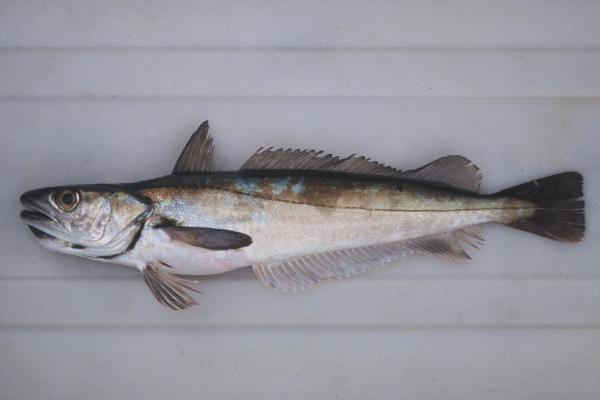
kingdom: Animalia
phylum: Chordata
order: Gadiformes
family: Merlucciidae
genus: Merluccius
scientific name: Merluccius capensis
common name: Cape hake
